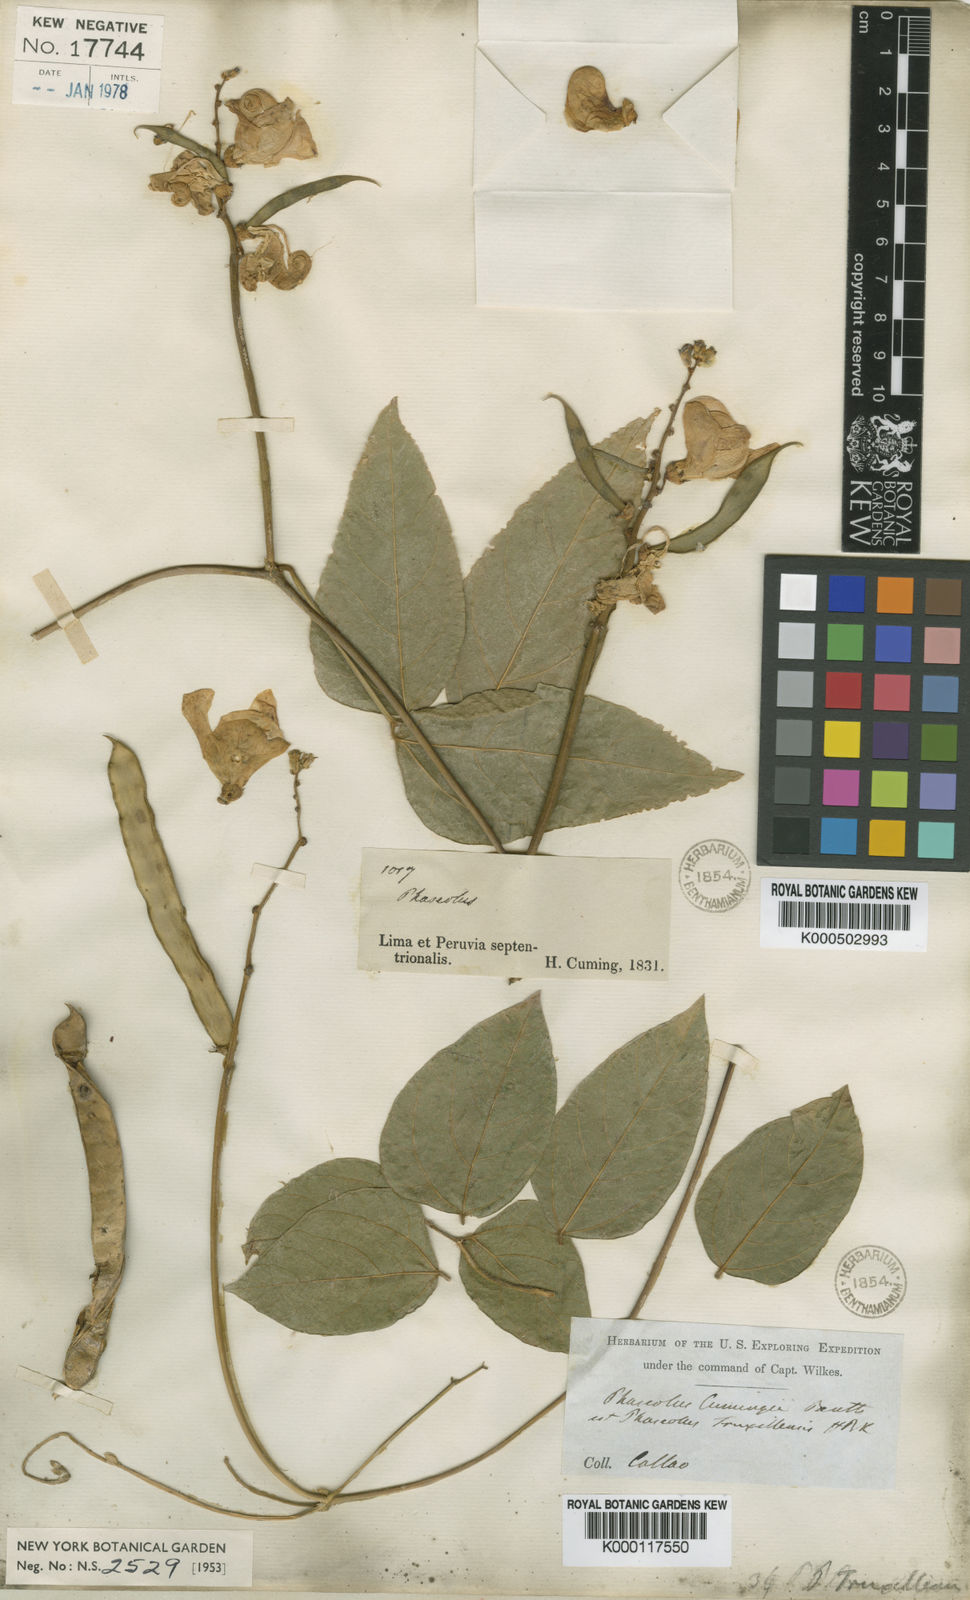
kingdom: Plantae
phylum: Tracheophyta
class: Magnoliopsida
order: Fabales
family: Fabaceae
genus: Vigna
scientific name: Vigna
